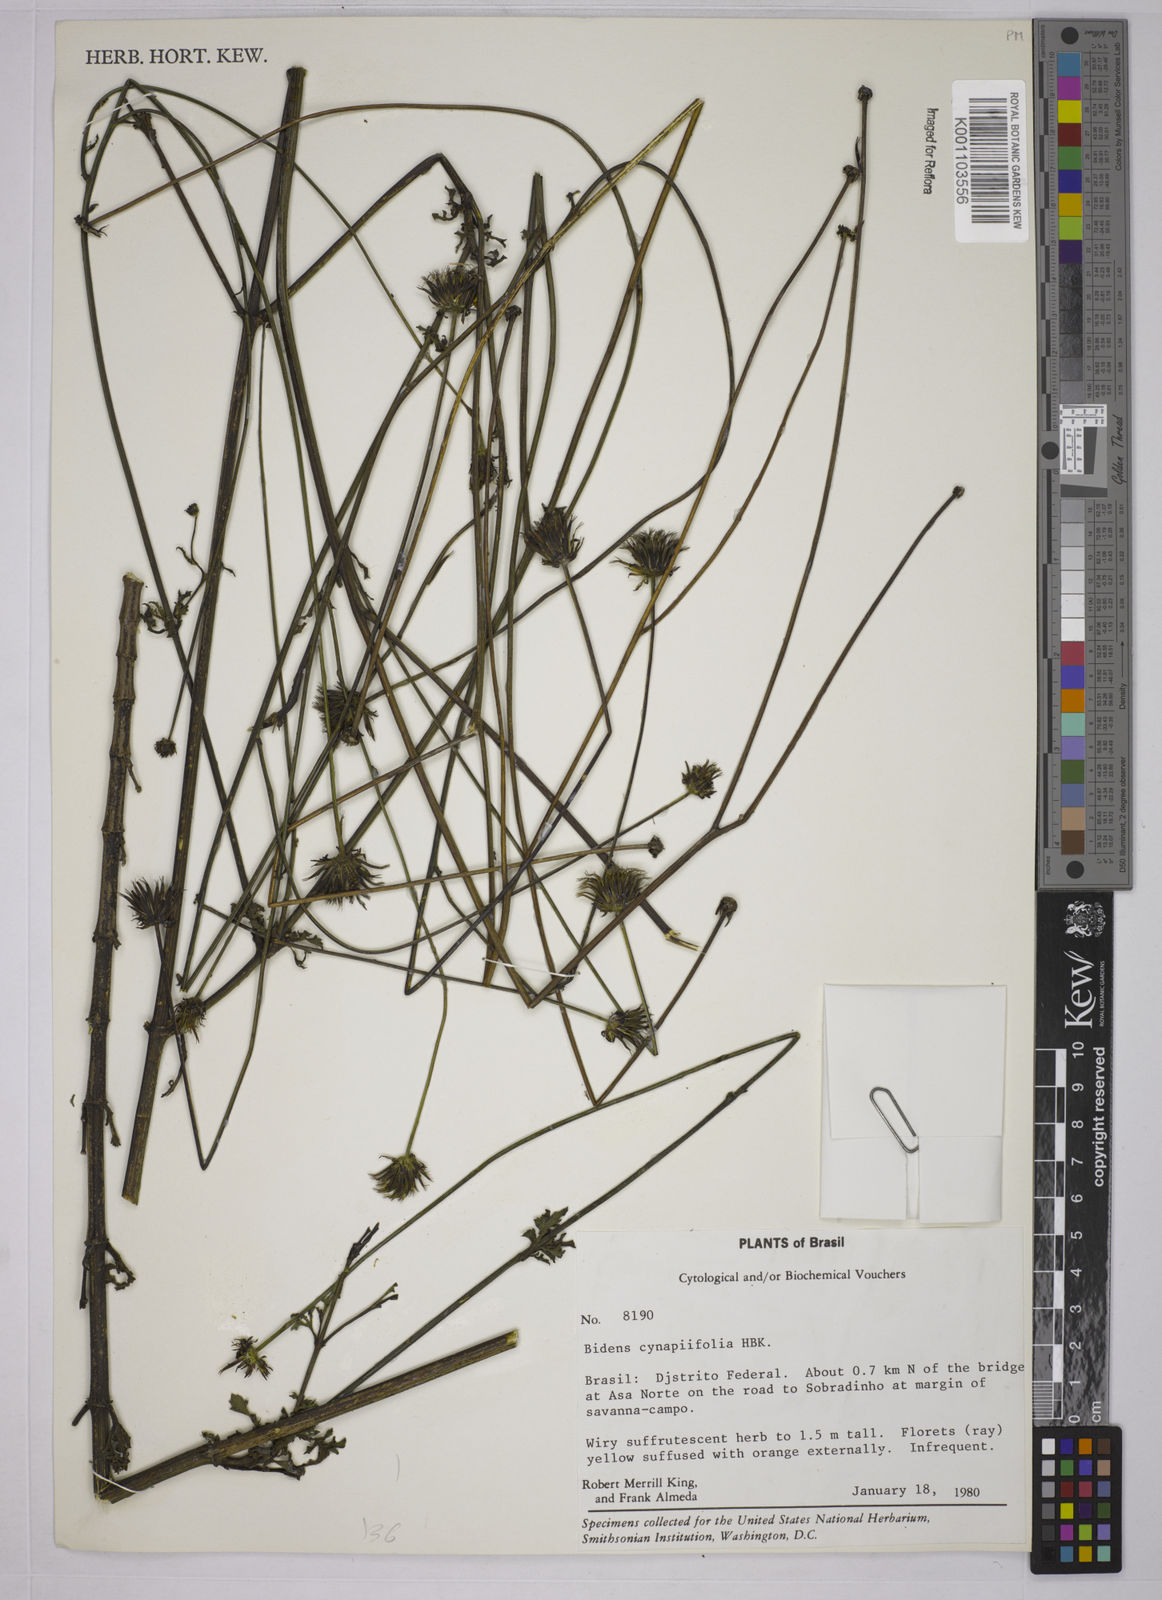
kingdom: Plantae
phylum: Tracheophyta
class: Magnoliopsida
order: Asterales
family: Asteraceae
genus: Bidens
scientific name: Bidens cynapiifolia
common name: Beggar's tick
